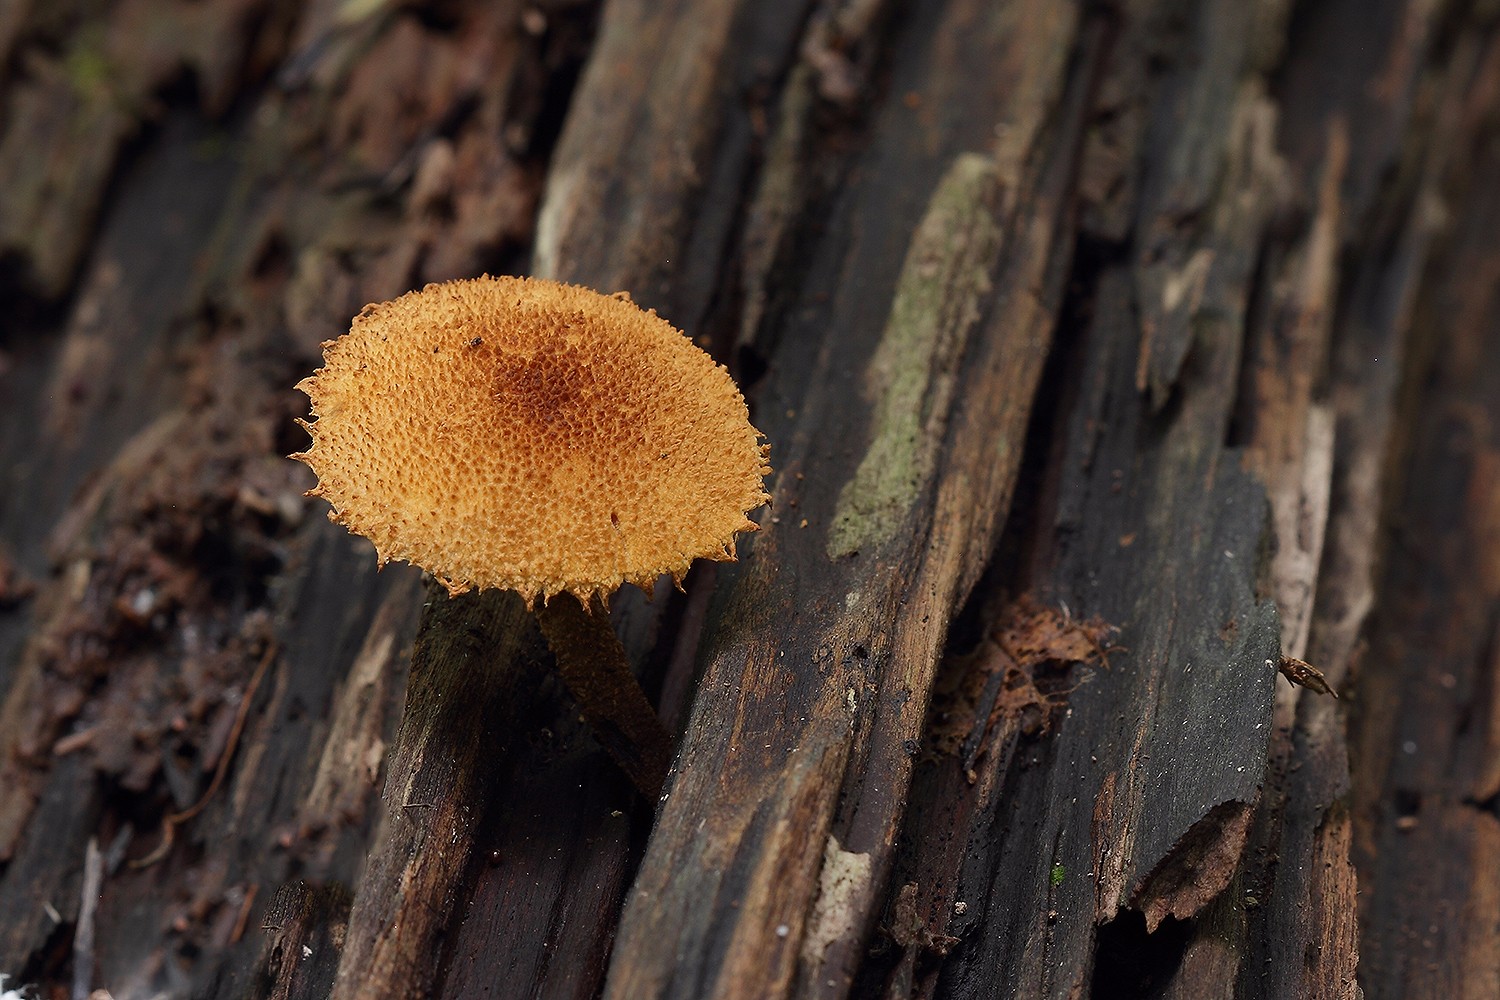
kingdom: Fungi
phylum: Basidiomycota
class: Agaricomycetes
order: Agaricales
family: Tubariaceae
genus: Flammulaster
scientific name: Flammulaster muricatus
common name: pigget grynskælhat
